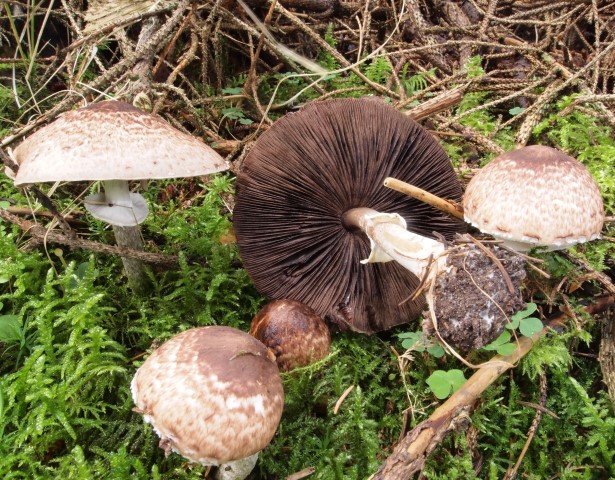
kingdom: Fungi
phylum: Basidiomycota
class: Agaricomycetes
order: Agaricales
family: Agaricaceae
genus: Agaricus
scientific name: Agaricus impudicus
